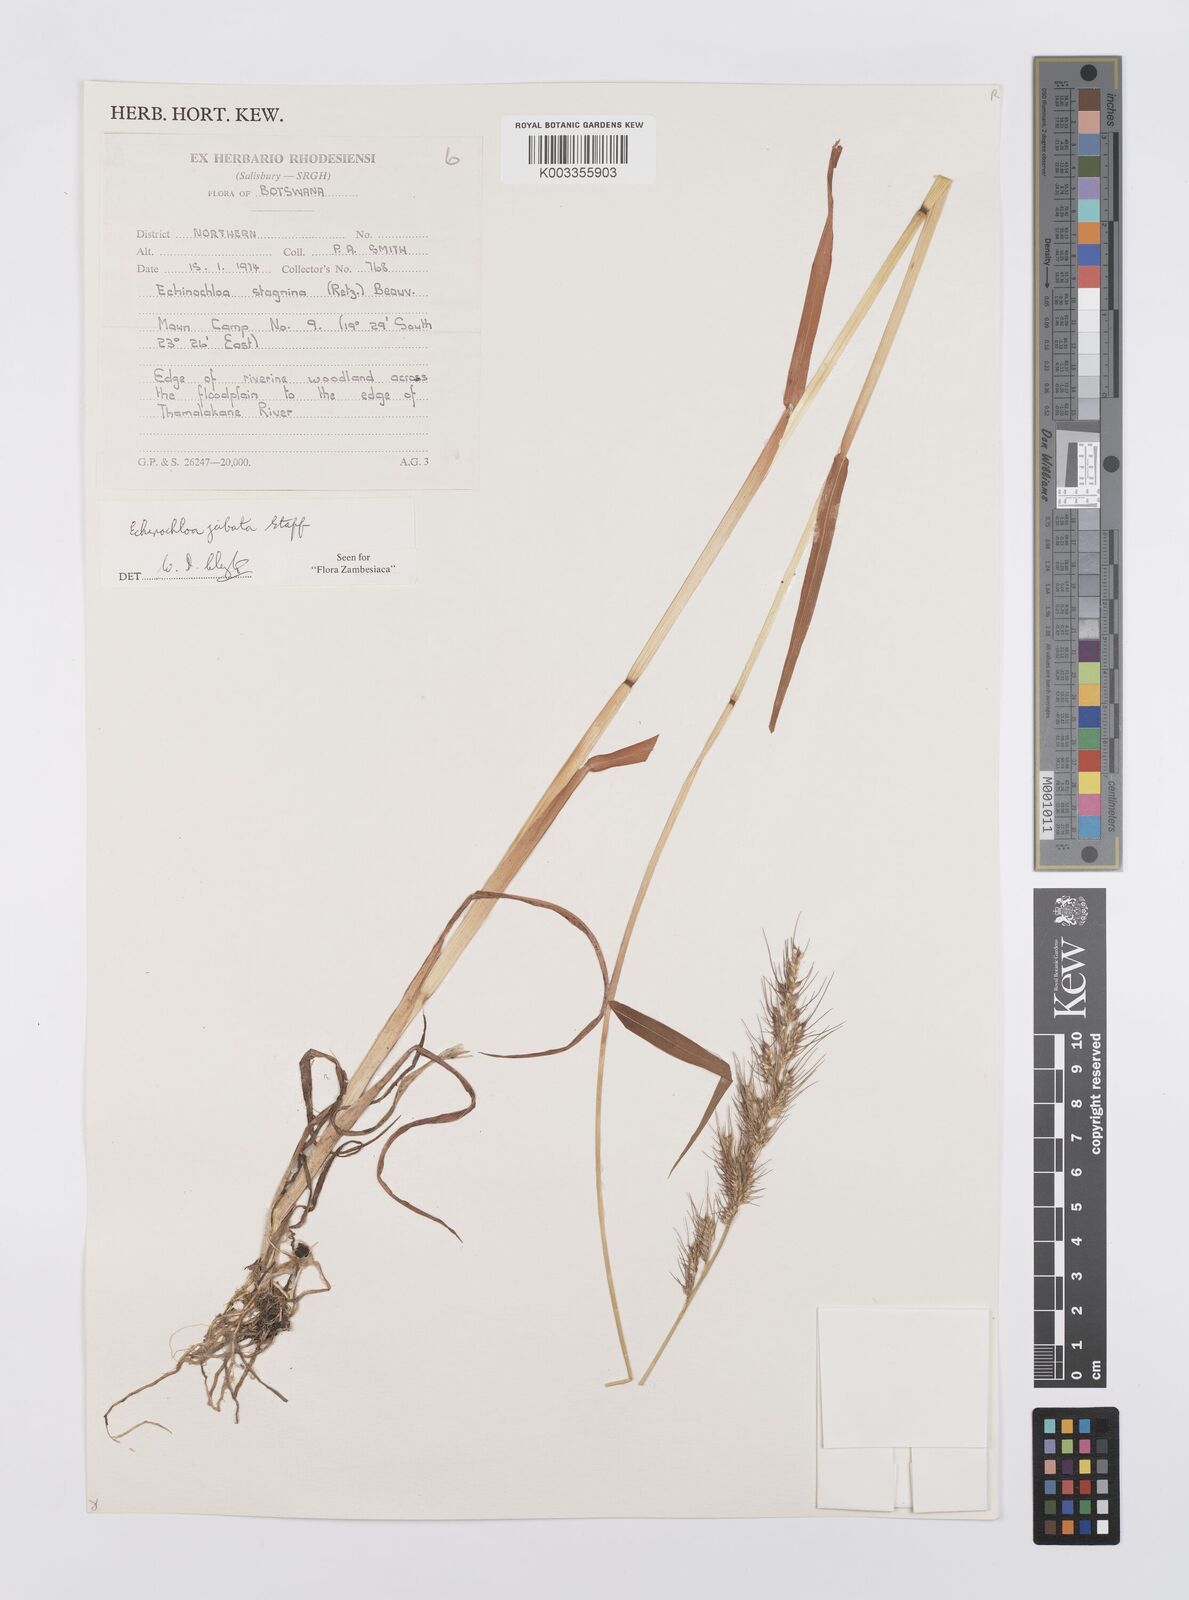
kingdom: Plantae
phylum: Tracheophyta
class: Liliopsida
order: Poales
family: Poaceae
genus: Echinochloa
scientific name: Echinochloa jubata
